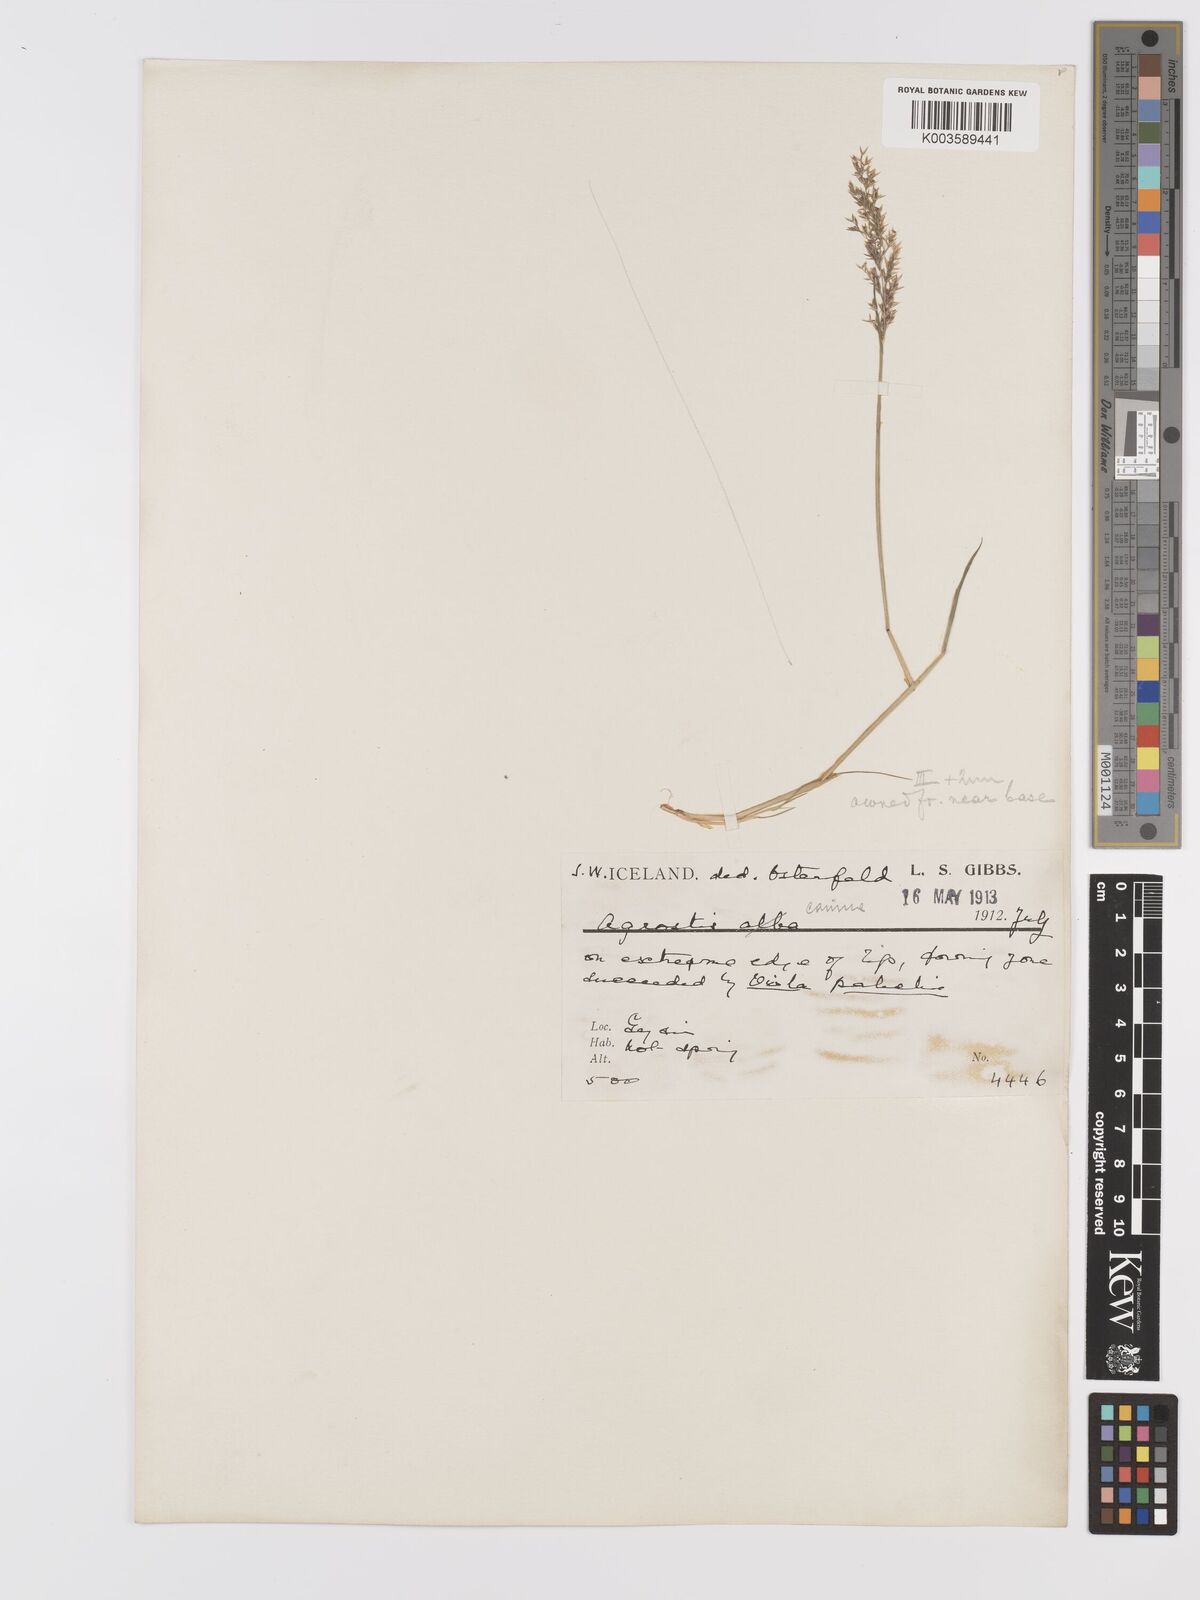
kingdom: Plantae
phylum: Tracheophyta
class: Liliopsida
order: Poales
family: Poaceae
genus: Agrostis
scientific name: Agrostis canina
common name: Velvet bent
